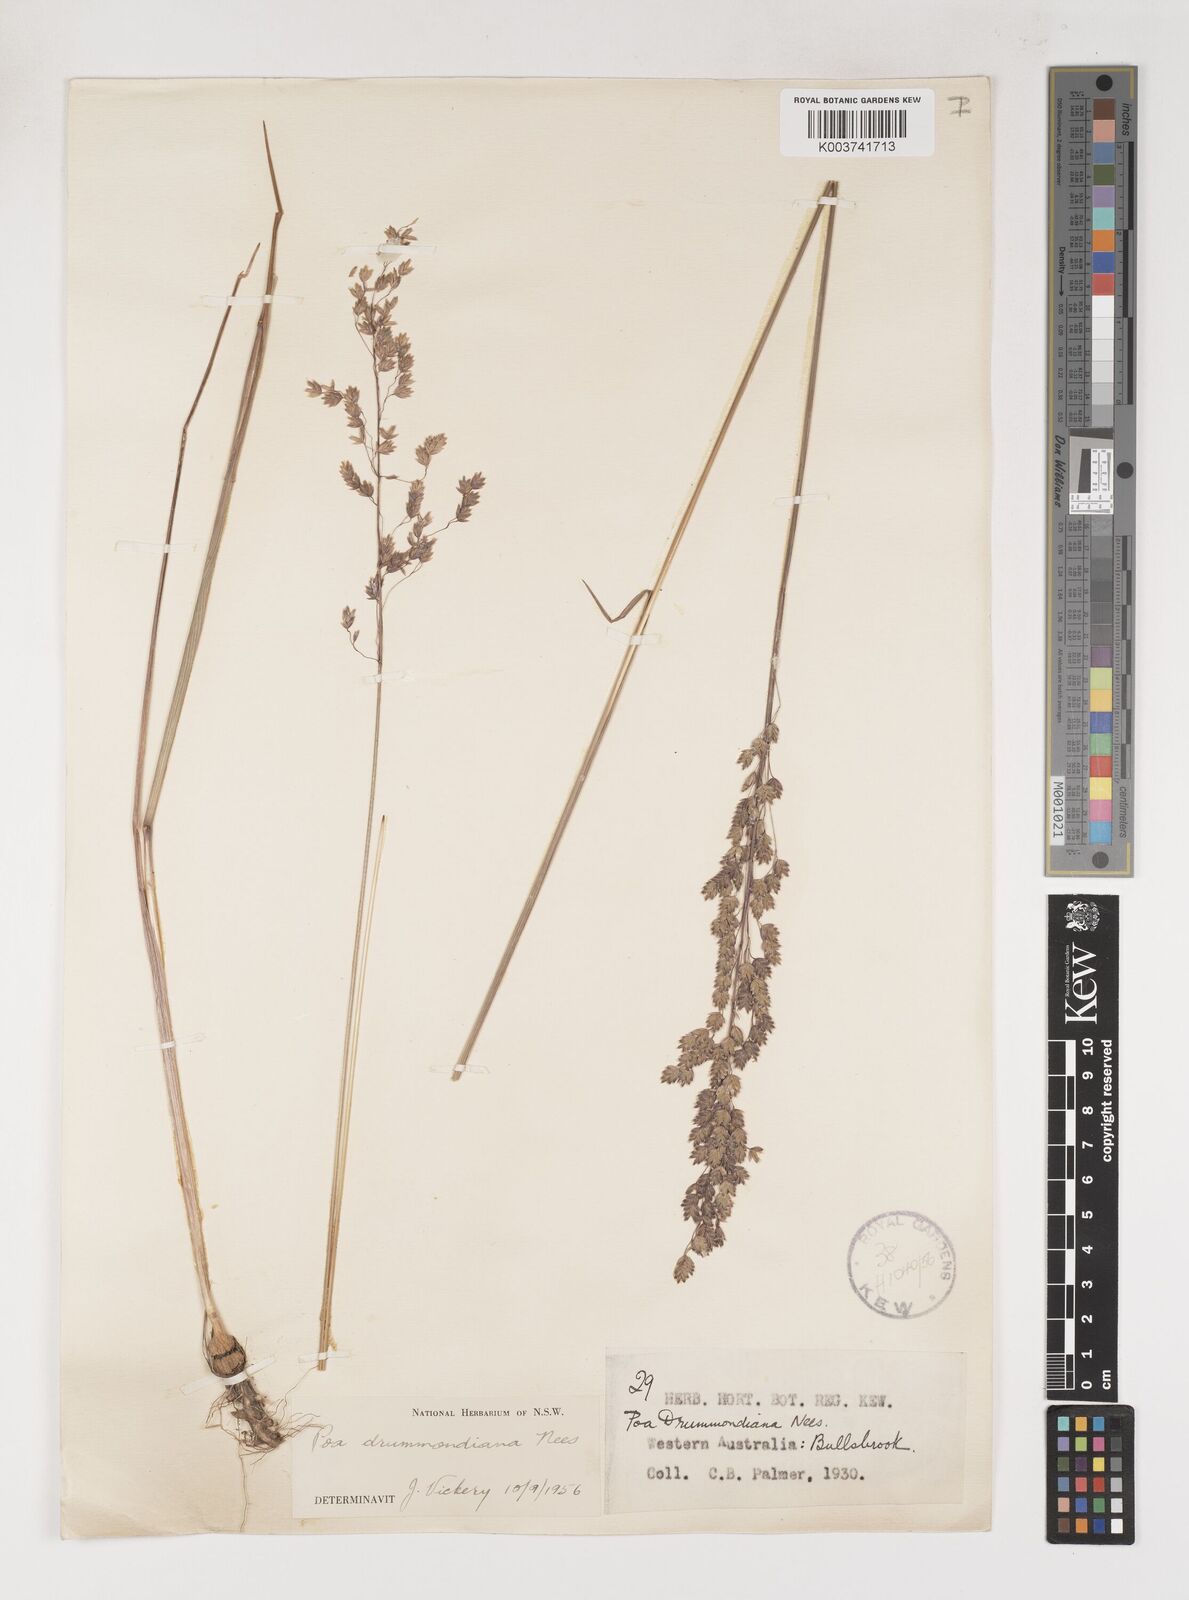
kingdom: Plantae
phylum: Tracheophyta
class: Liliopsida
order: Poales
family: Poaceae
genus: Poa
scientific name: Poa drummondiana
